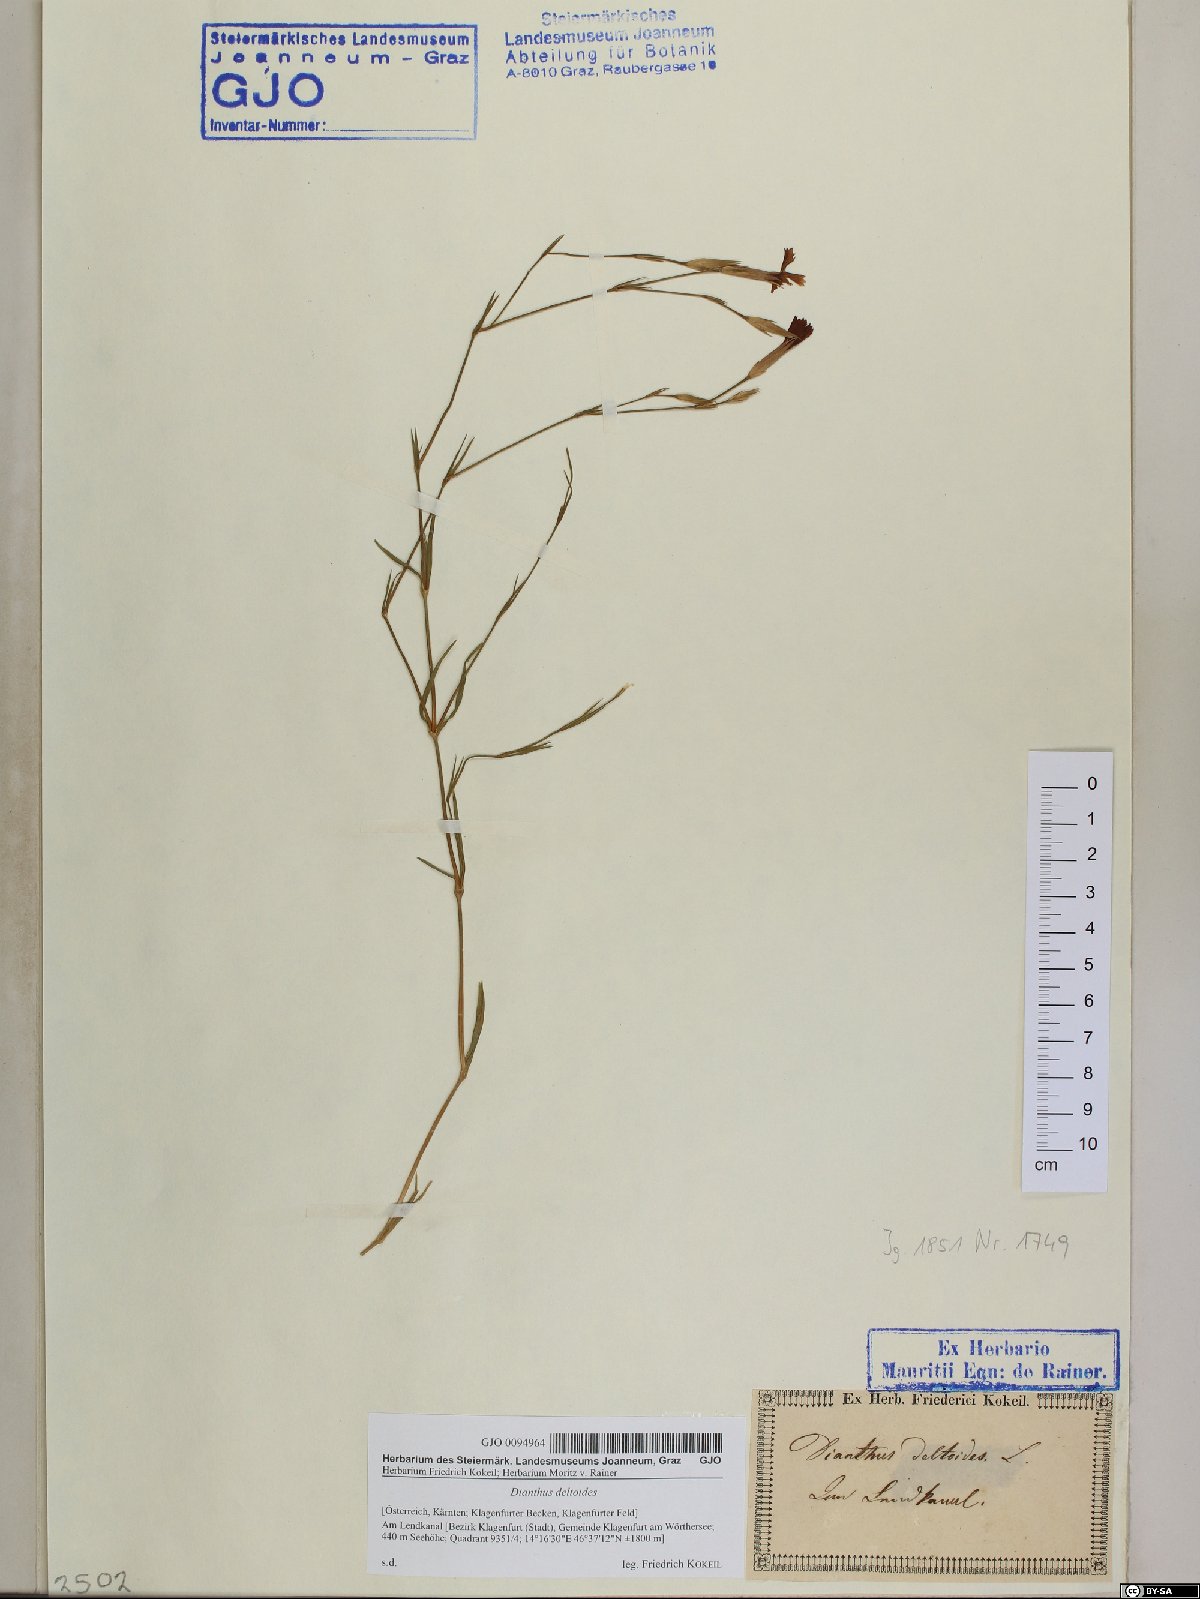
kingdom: Plantae
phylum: Tracheophyta
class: Magnoliopsida
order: Caryophyllales
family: Caryophyllaceae
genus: Dianthus
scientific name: Dianthus deltoides
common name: Maiden pink
